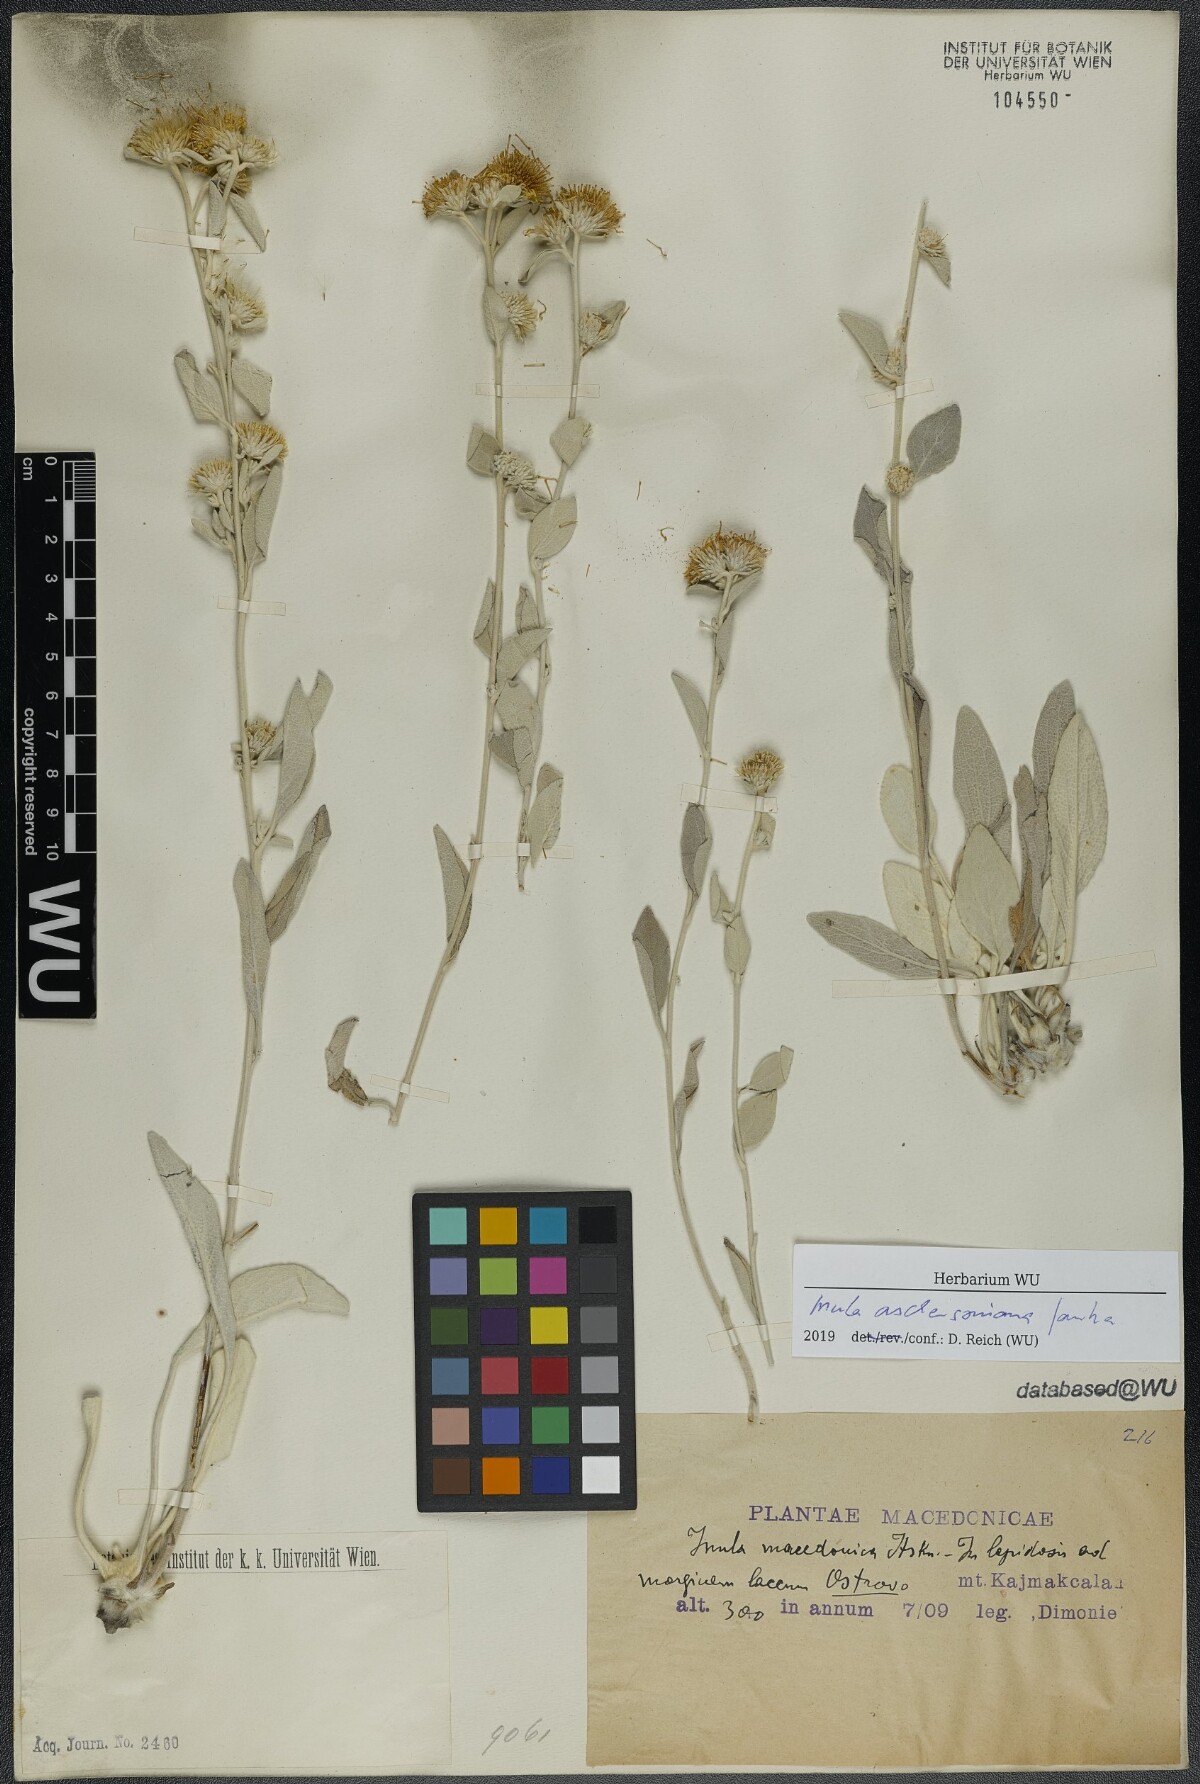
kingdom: Plantae
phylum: Tracheophyta
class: Magnoliopsida
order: Asterales
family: Asteraceae
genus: Pentanema
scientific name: Pentanema aschersonianum
